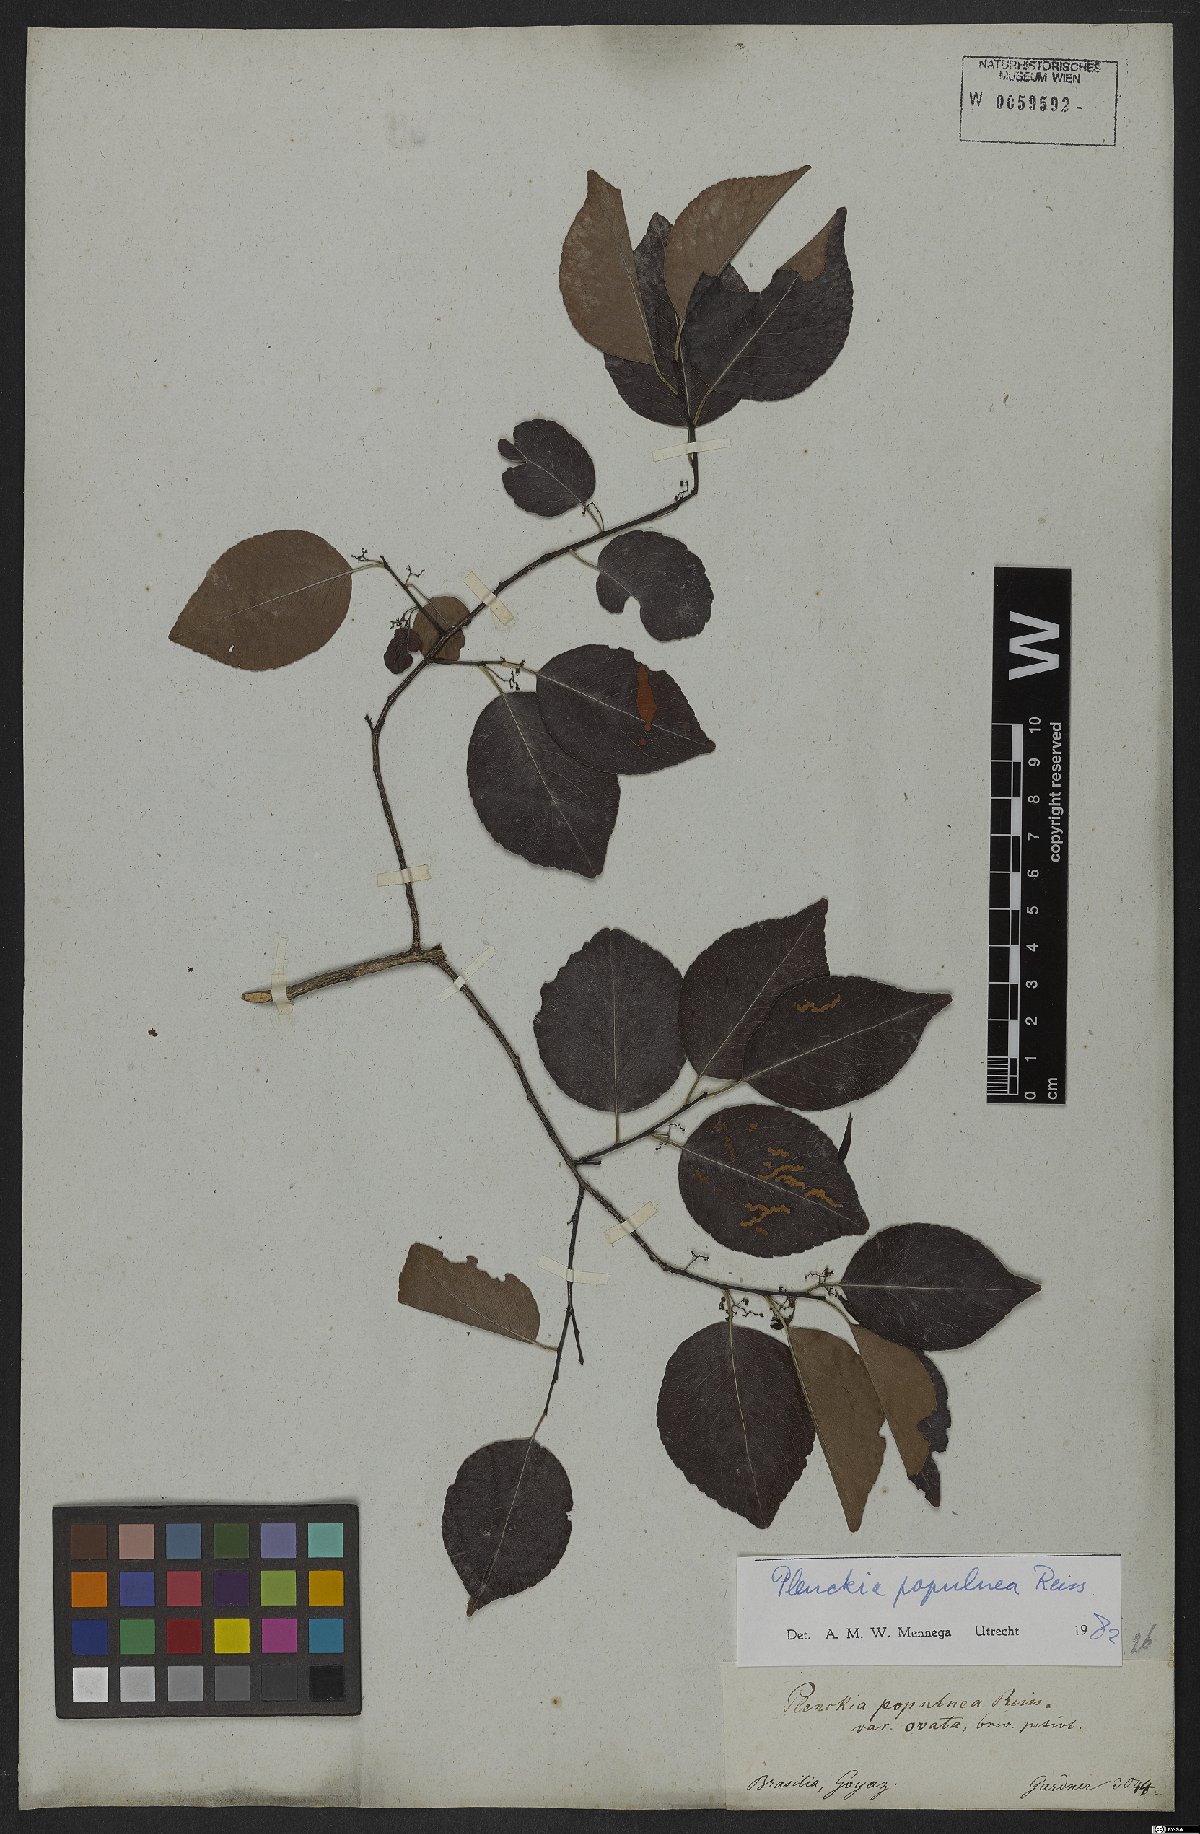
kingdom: Plantae
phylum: Tracheophyta
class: Magnoliopsida
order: Celastrales
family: Celastraceae
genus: Plenckia
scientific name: Plenckia populnea
